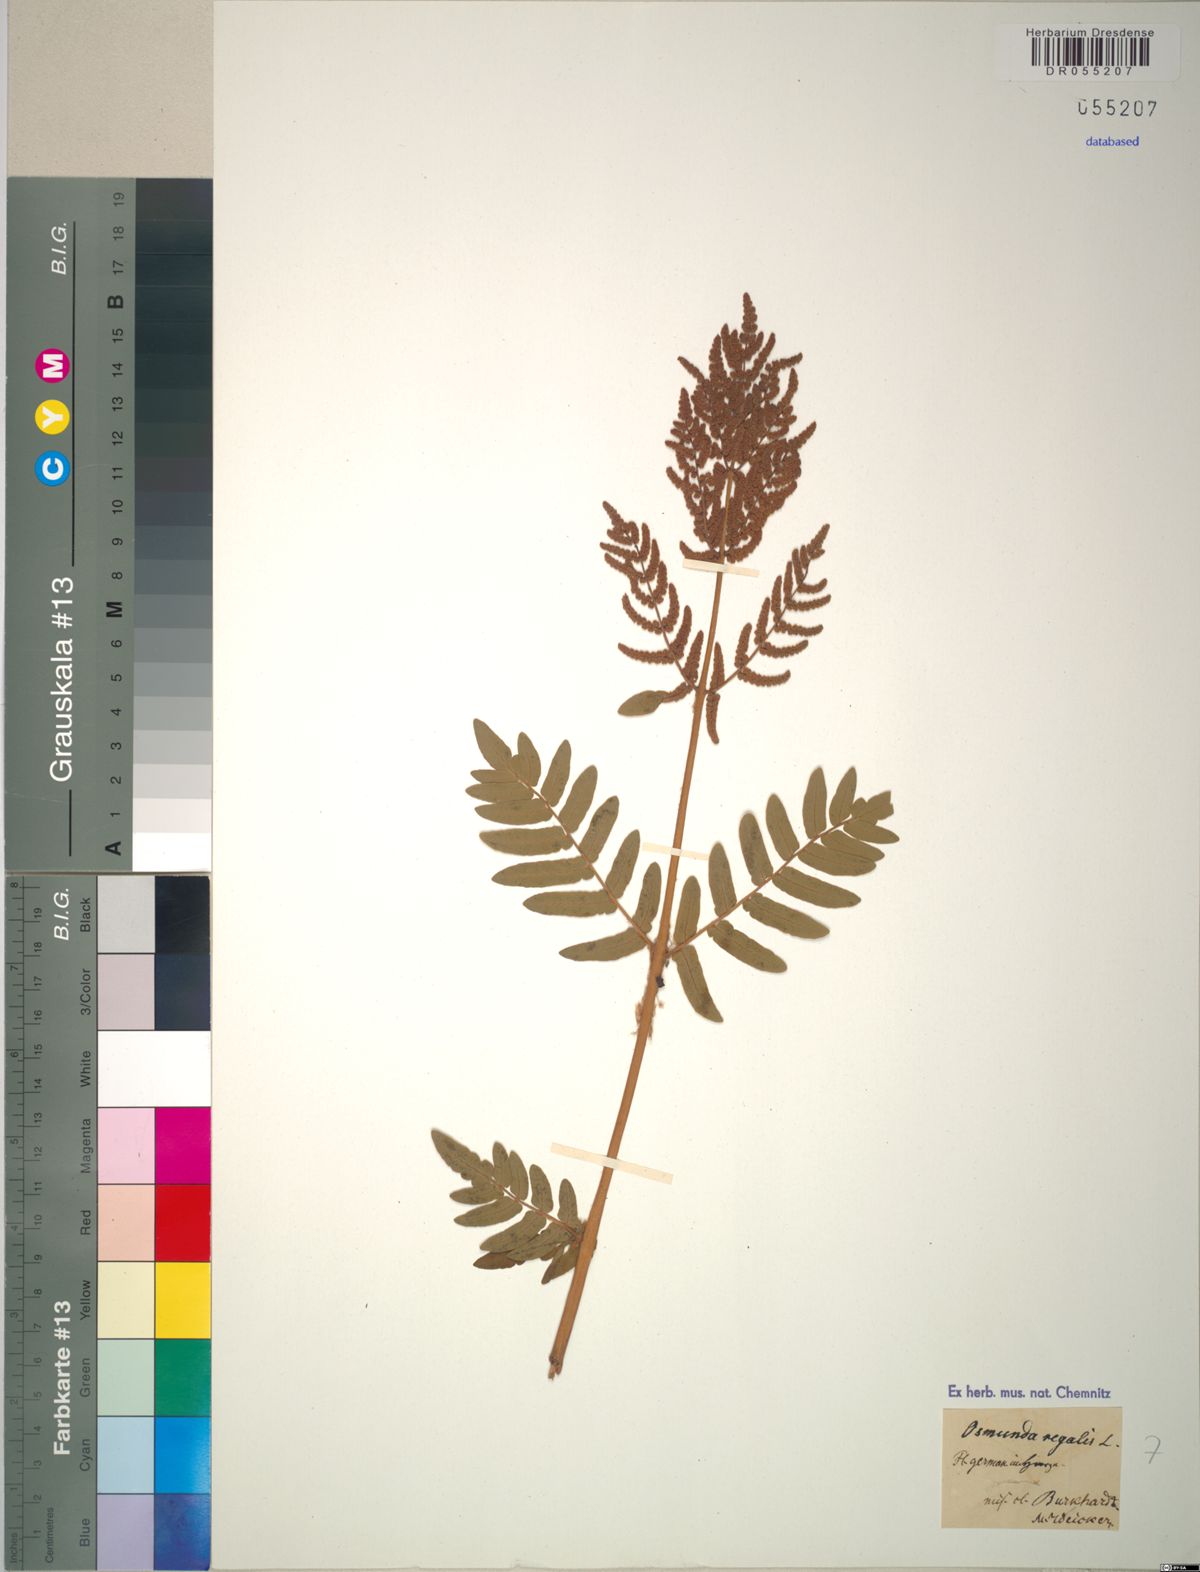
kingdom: Plantae
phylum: Tracheophyta
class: Polypodiopsida
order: Osmundales
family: Osmundaceae
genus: Osmunda
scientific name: Osmunda regalis
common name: Royal fern
